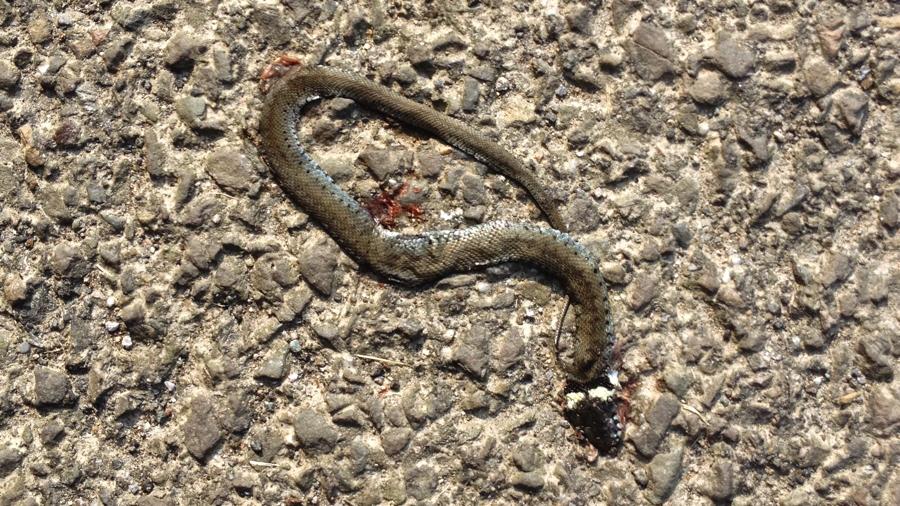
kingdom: Animalia
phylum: Chordata
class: Squamata
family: Colubridae
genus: Natrix
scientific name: Natrix natrix
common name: Grass snake
